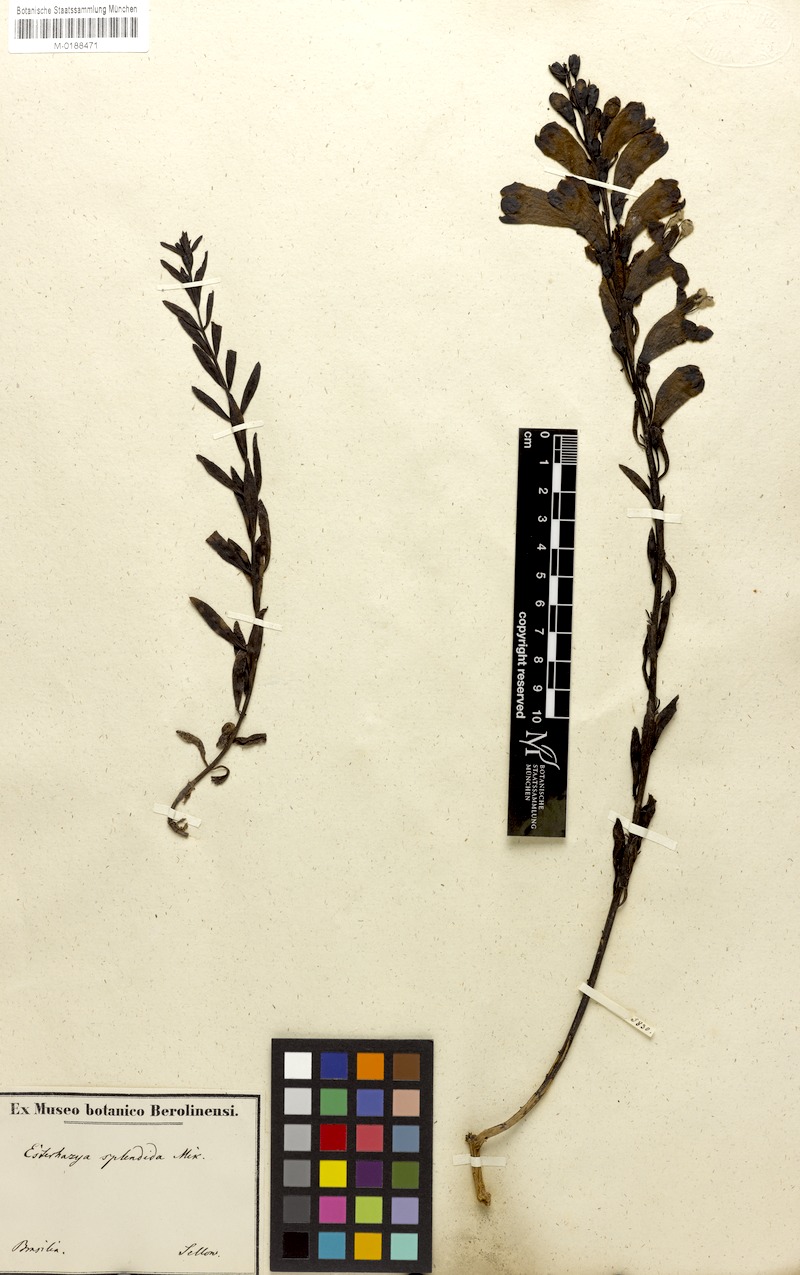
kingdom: Plantae
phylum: Tracheophyta
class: Magnoliopsida
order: Lamiales
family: Orobanchaceae
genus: Esterhazya
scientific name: Esterhazya splendida
